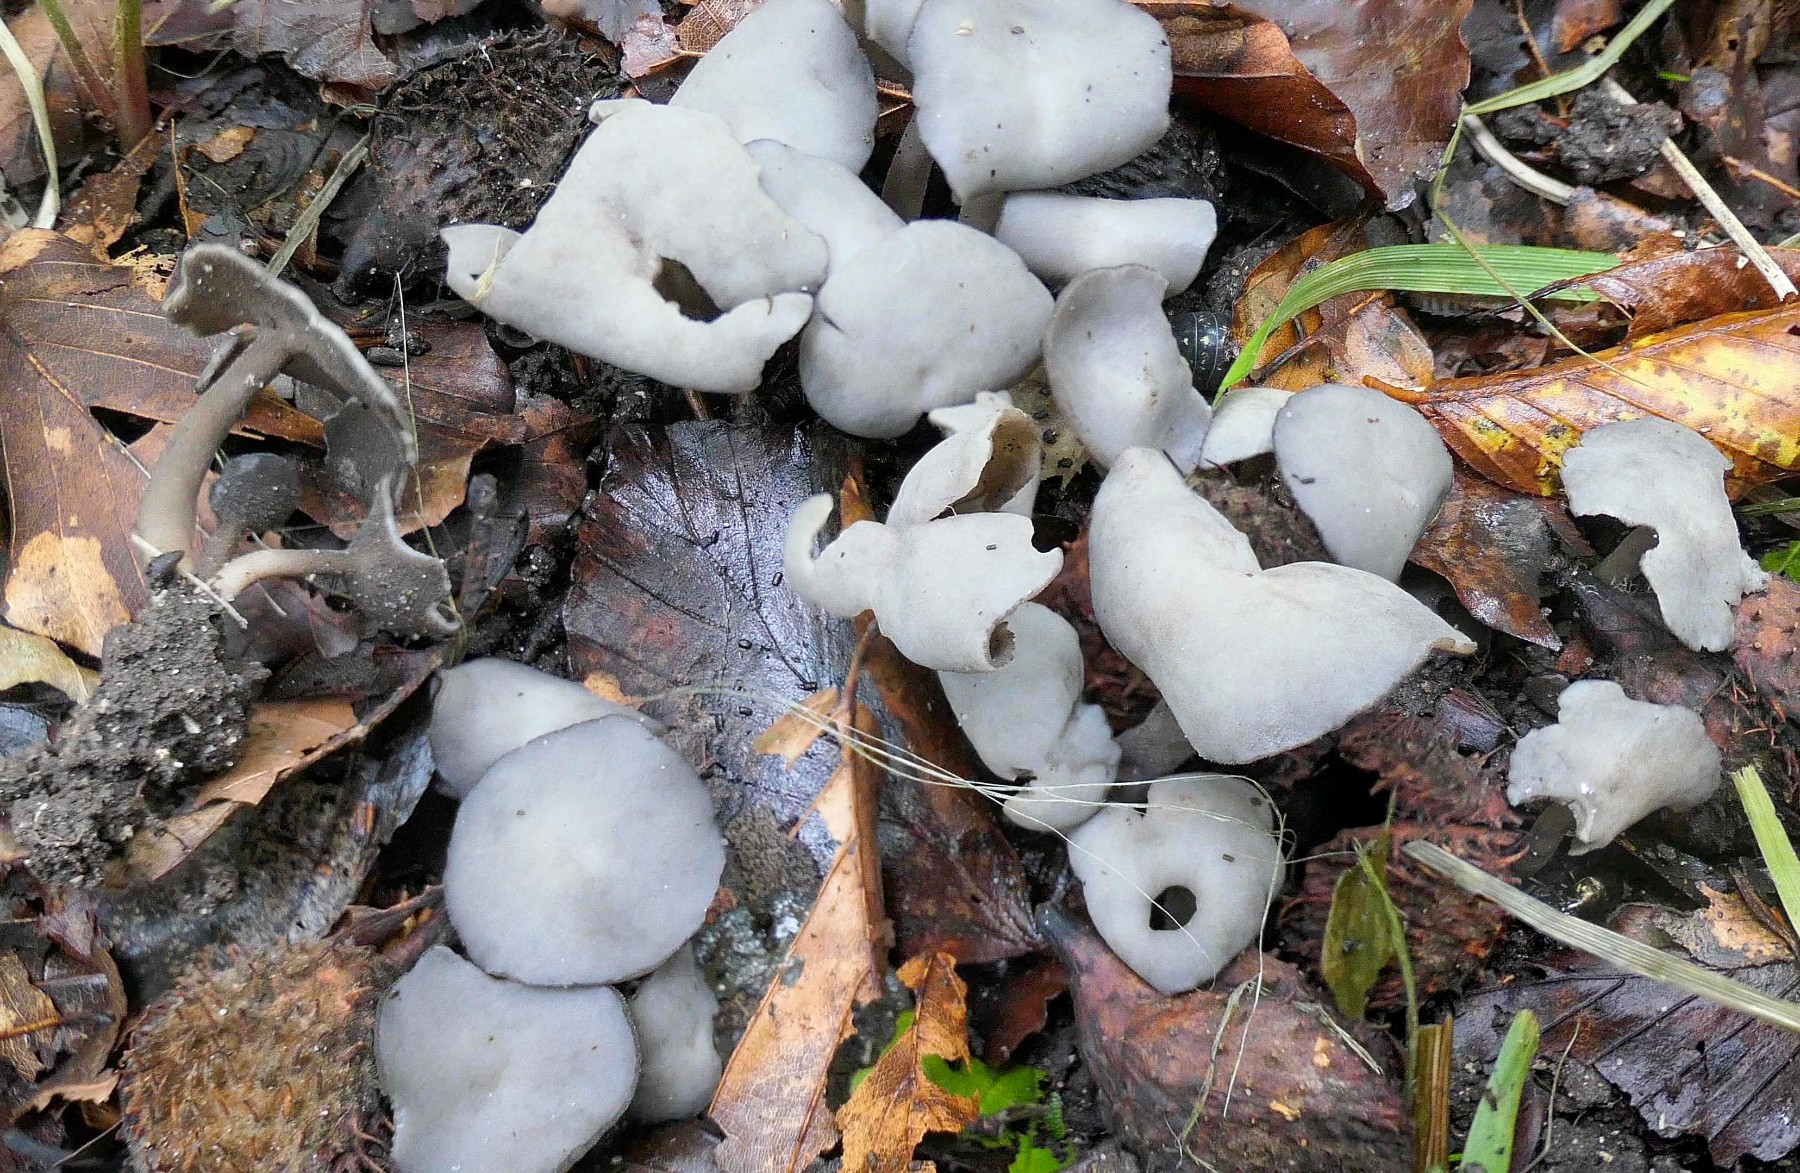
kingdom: Fungi
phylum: Ascomycota
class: Pezizomycetes
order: Pezizales
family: Helvellaceae
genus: Helvella
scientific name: Helvella
